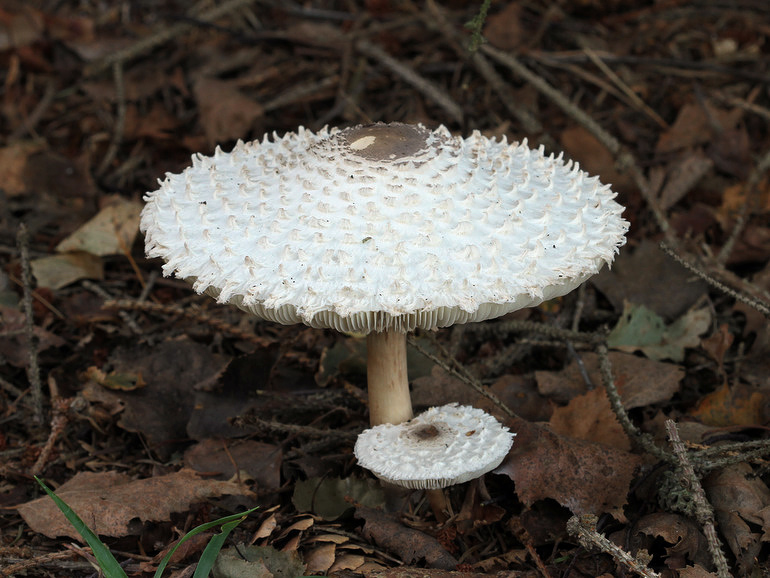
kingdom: Fungi
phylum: Basidiomycota
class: Agaricomycetes
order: Agaricales
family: Agaricaceae
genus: Leucoagaricus
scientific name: Leucoagaricus nympharum
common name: gran-silkehat
